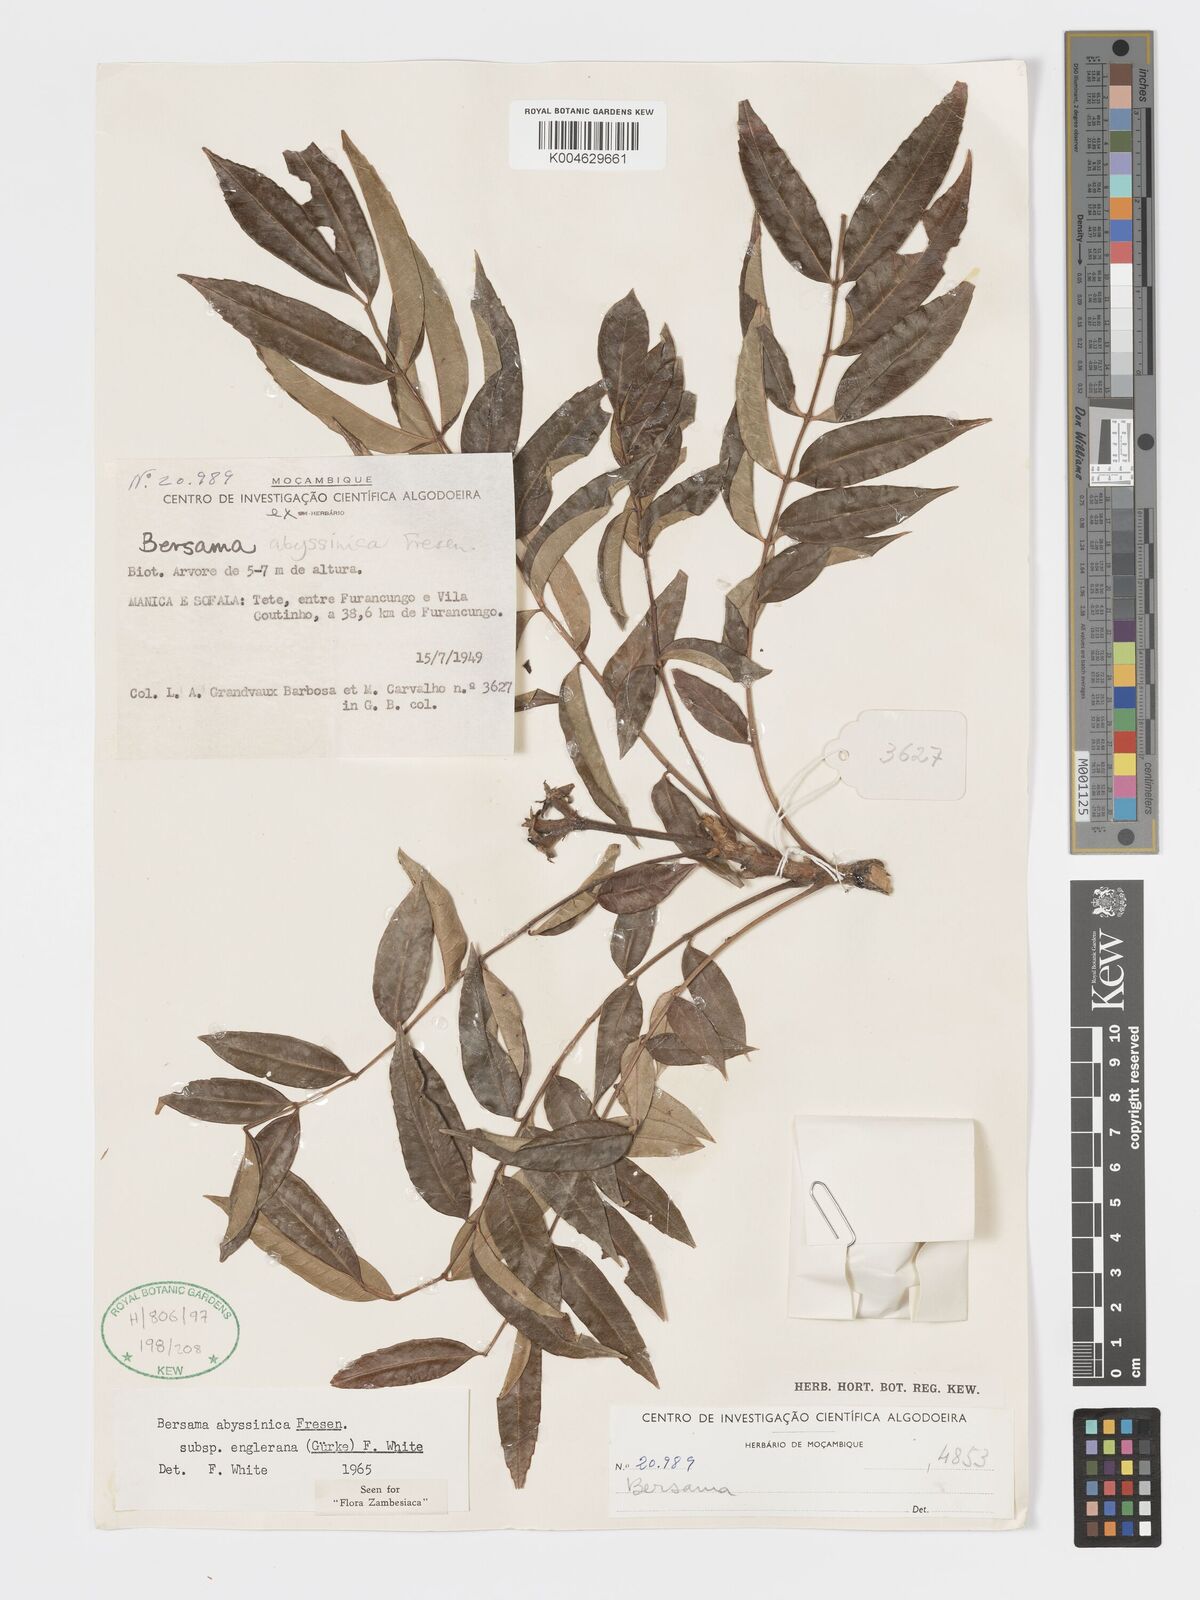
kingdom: Plantae
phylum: Tracheophyta
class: Magnoliopsida
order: Geraniales
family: Melianthaceae
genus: Bersama
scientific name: Bersama abyssinica
